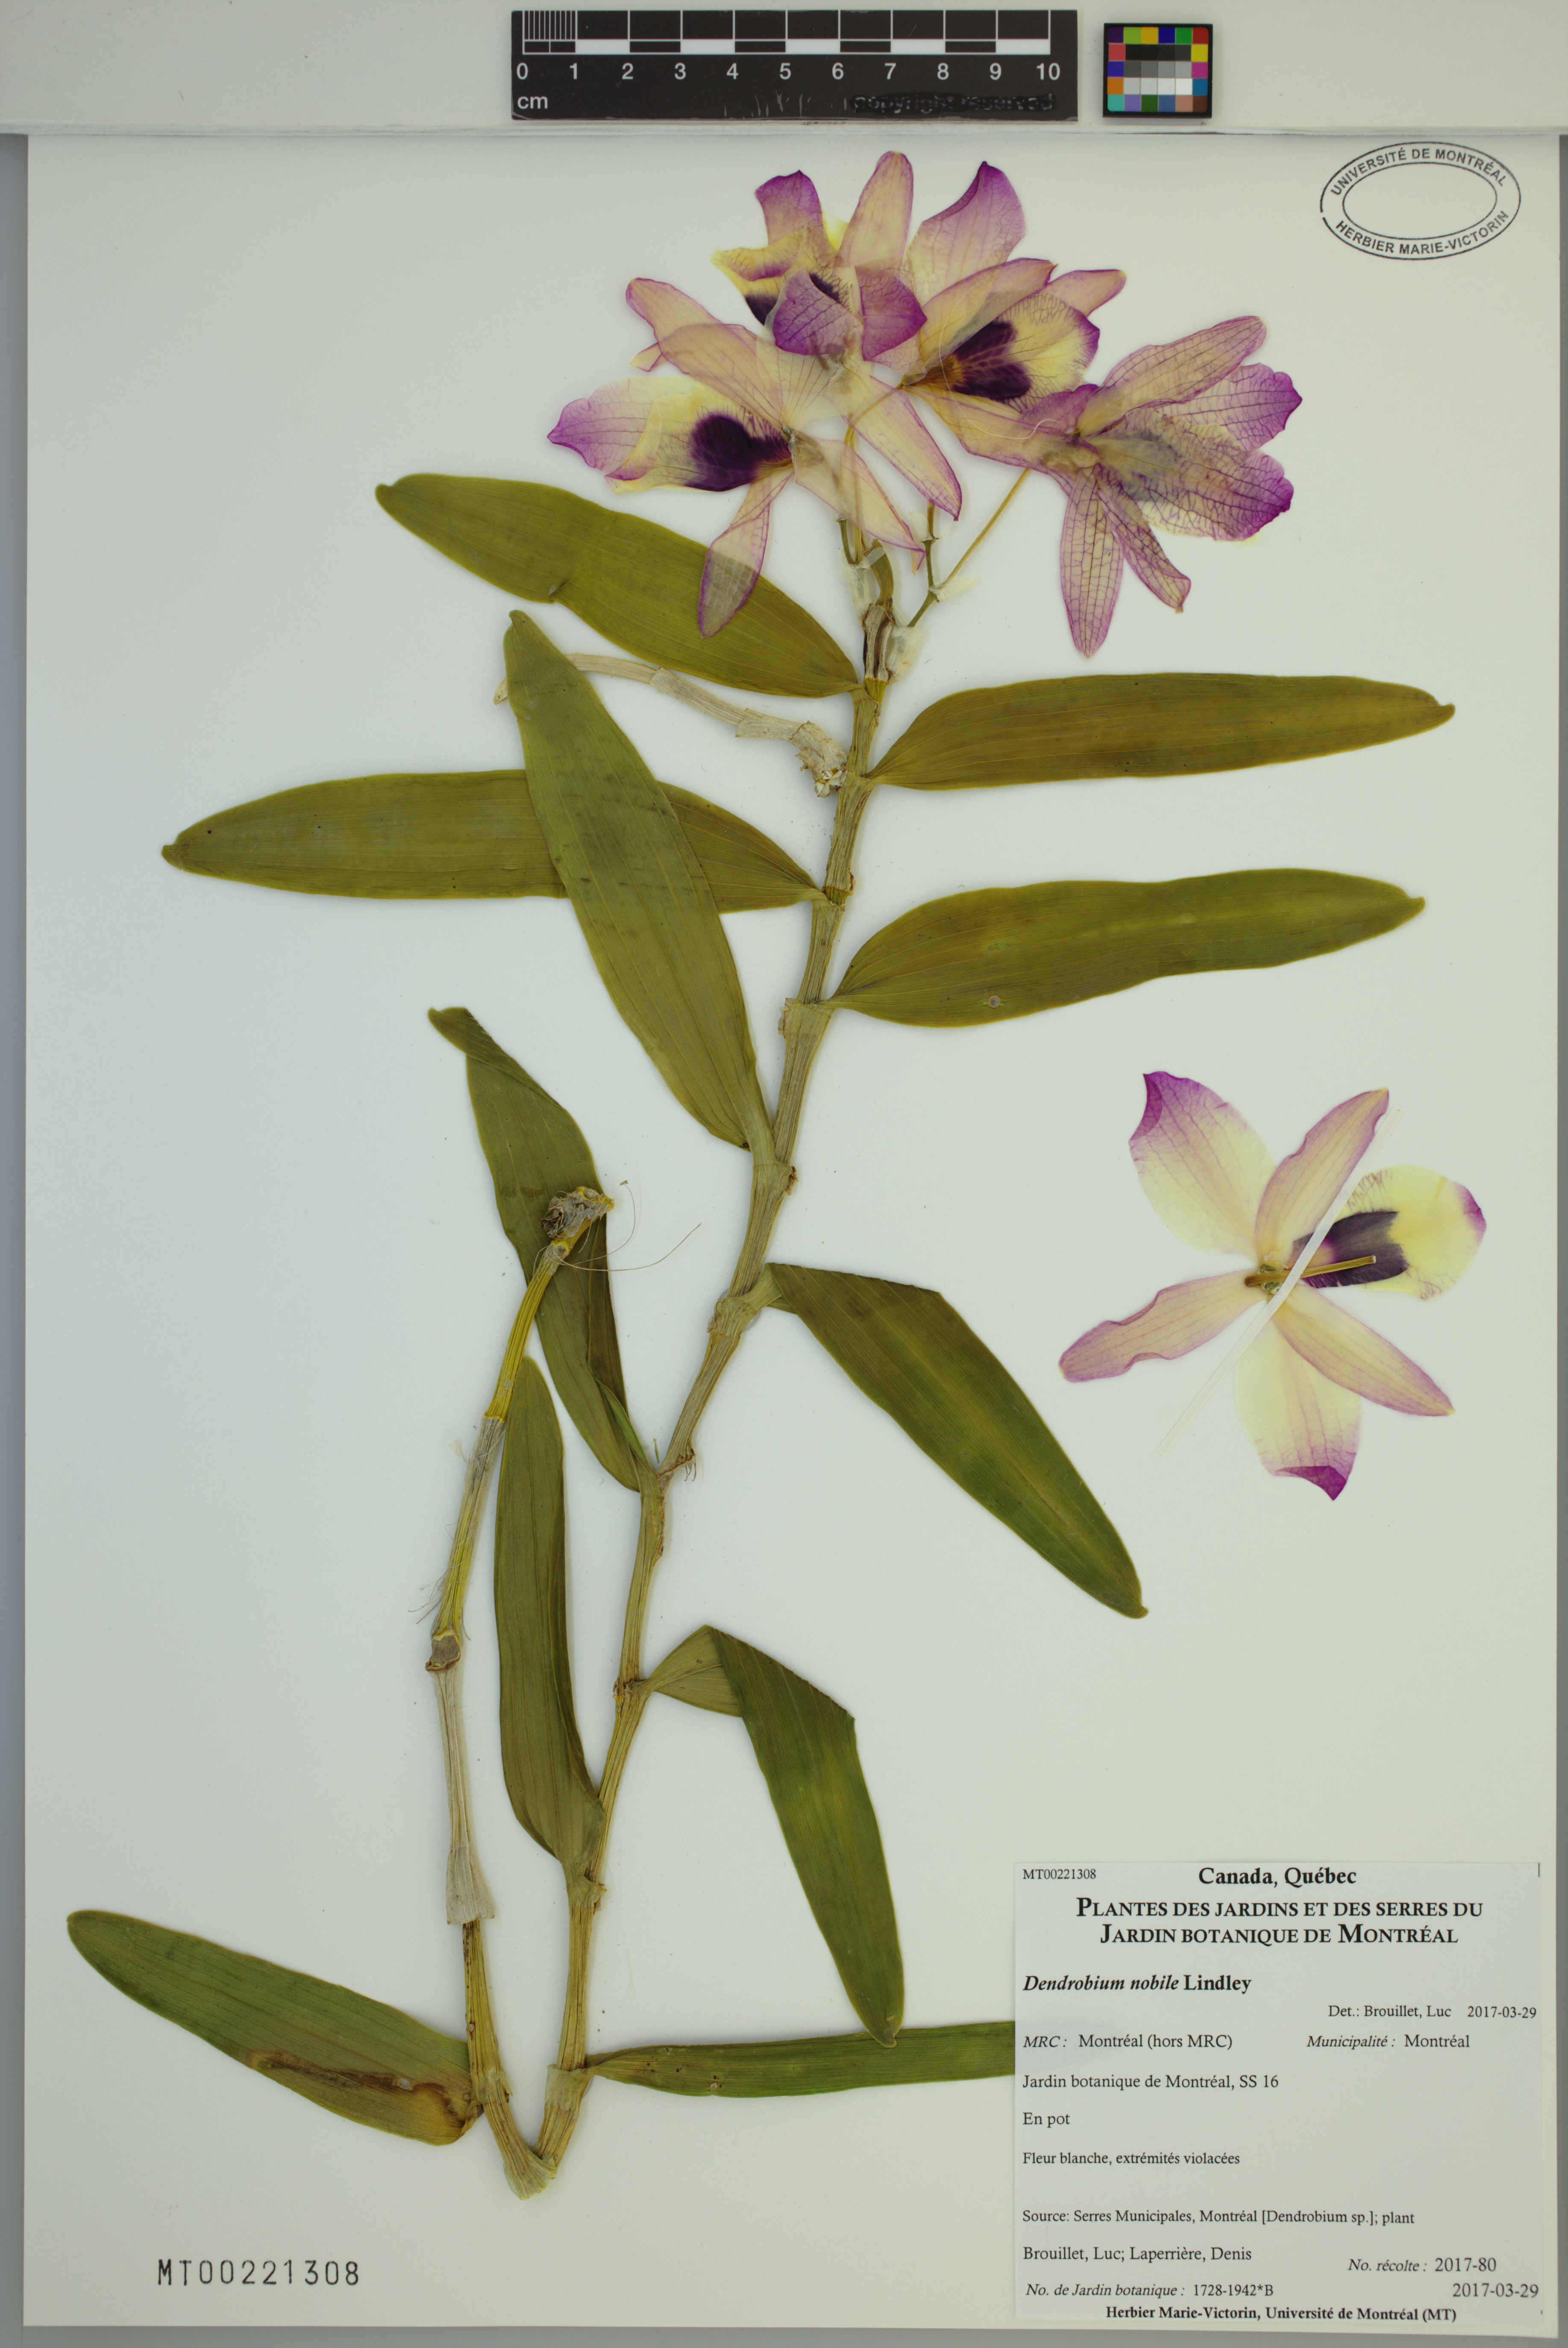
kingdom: Plantae
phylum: Tracheophyta
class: Liliopsida
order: Asparagales
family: Orchidaceae
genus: Dendrobium
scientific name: Dendrobium nobile
